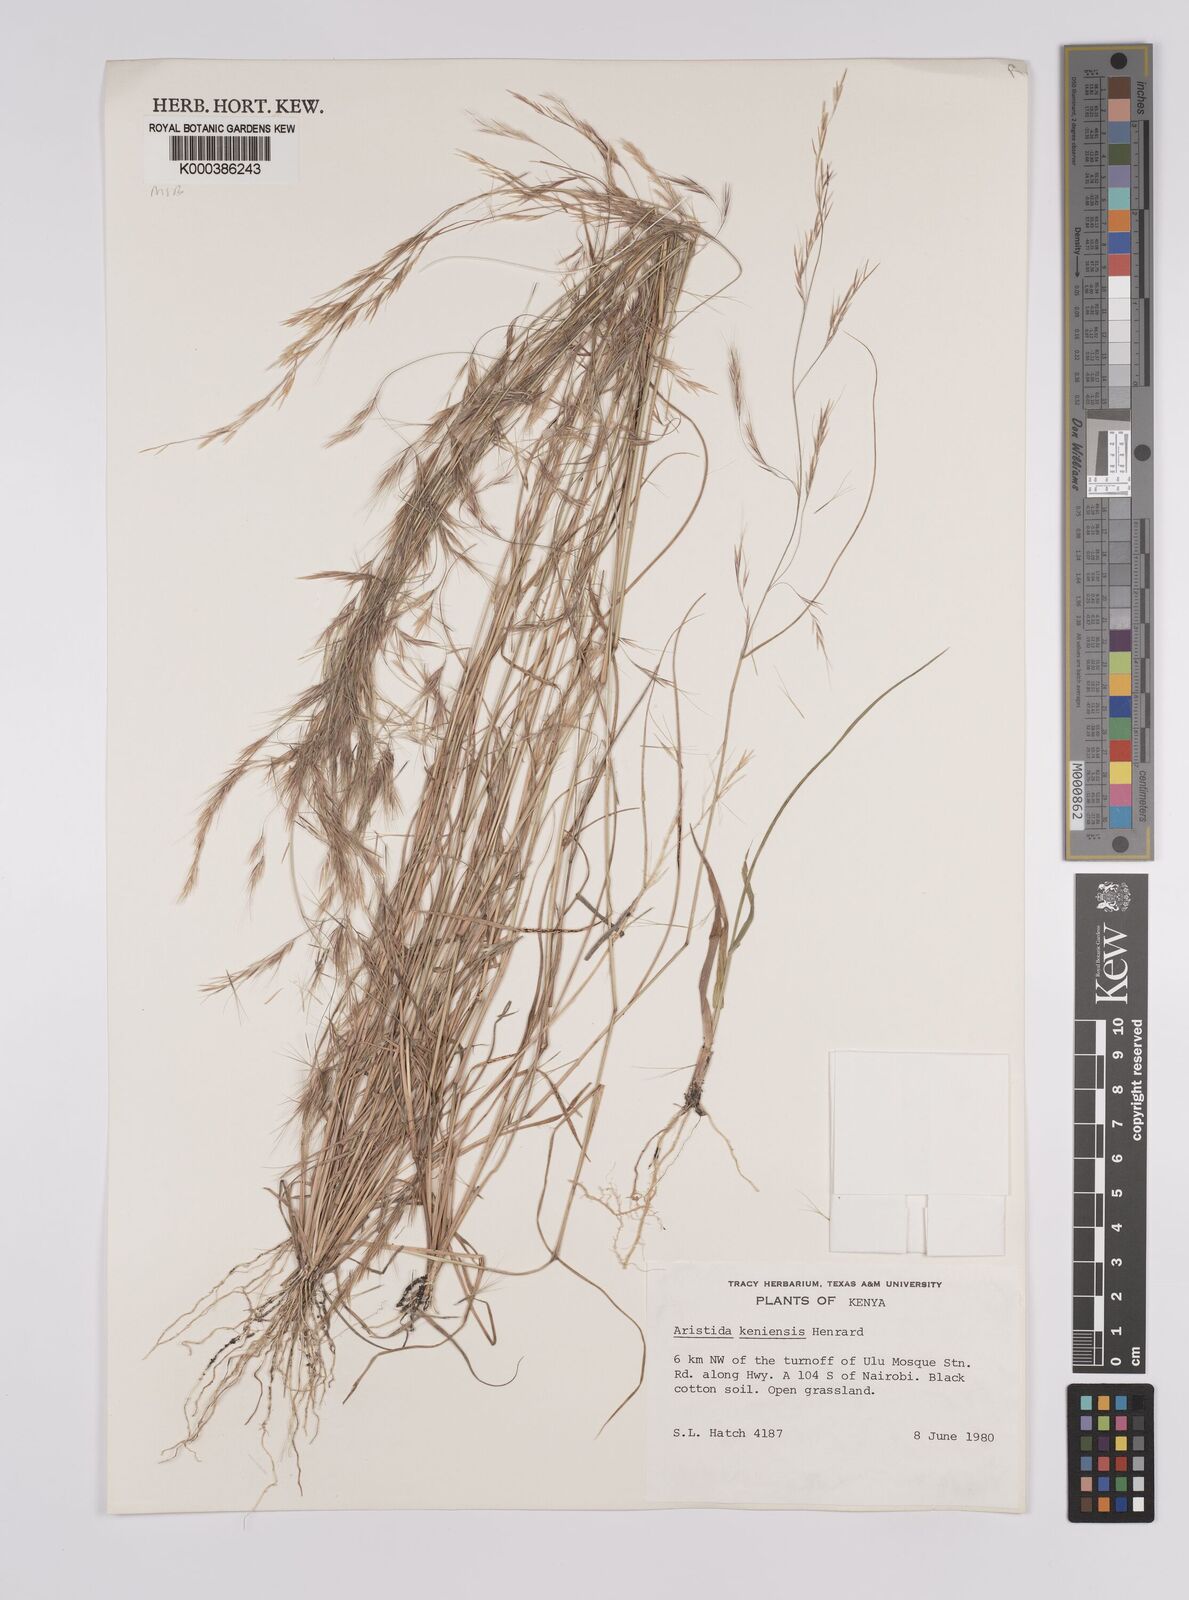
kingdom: Plantae
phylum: Tracheophyta
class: Liliopsida
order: Poales
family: Poaceae
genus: Aristida
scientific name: Aristida kenyensis
